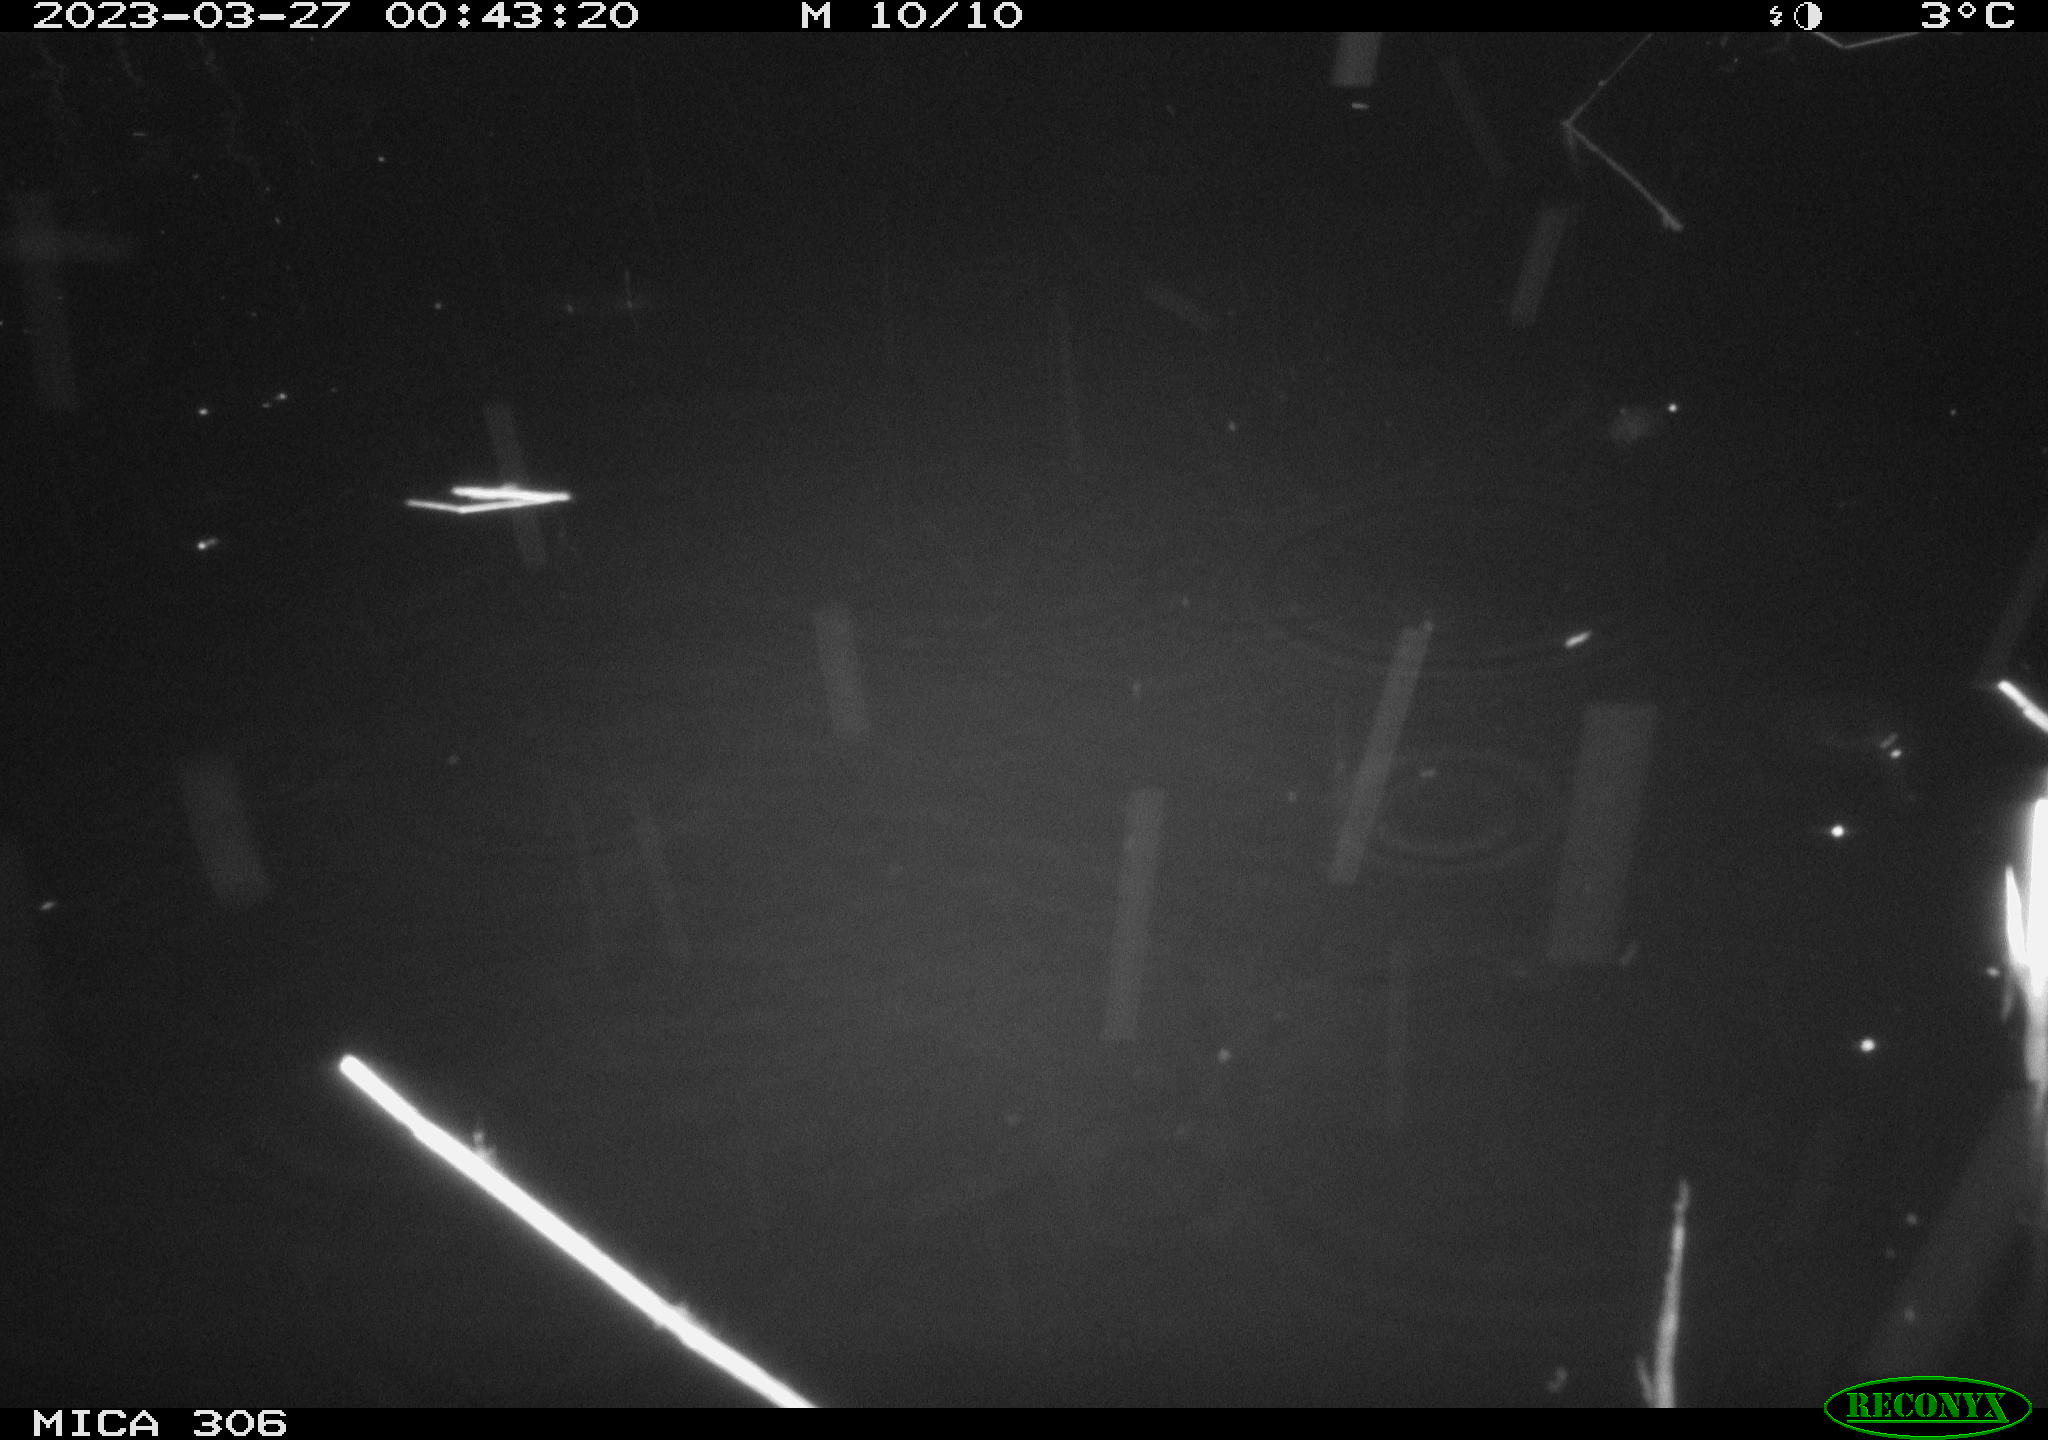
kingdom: Animalia
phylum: Chordata
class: Aves
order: Anseriformes
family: Anatidae
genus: Anas
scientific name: Anas
